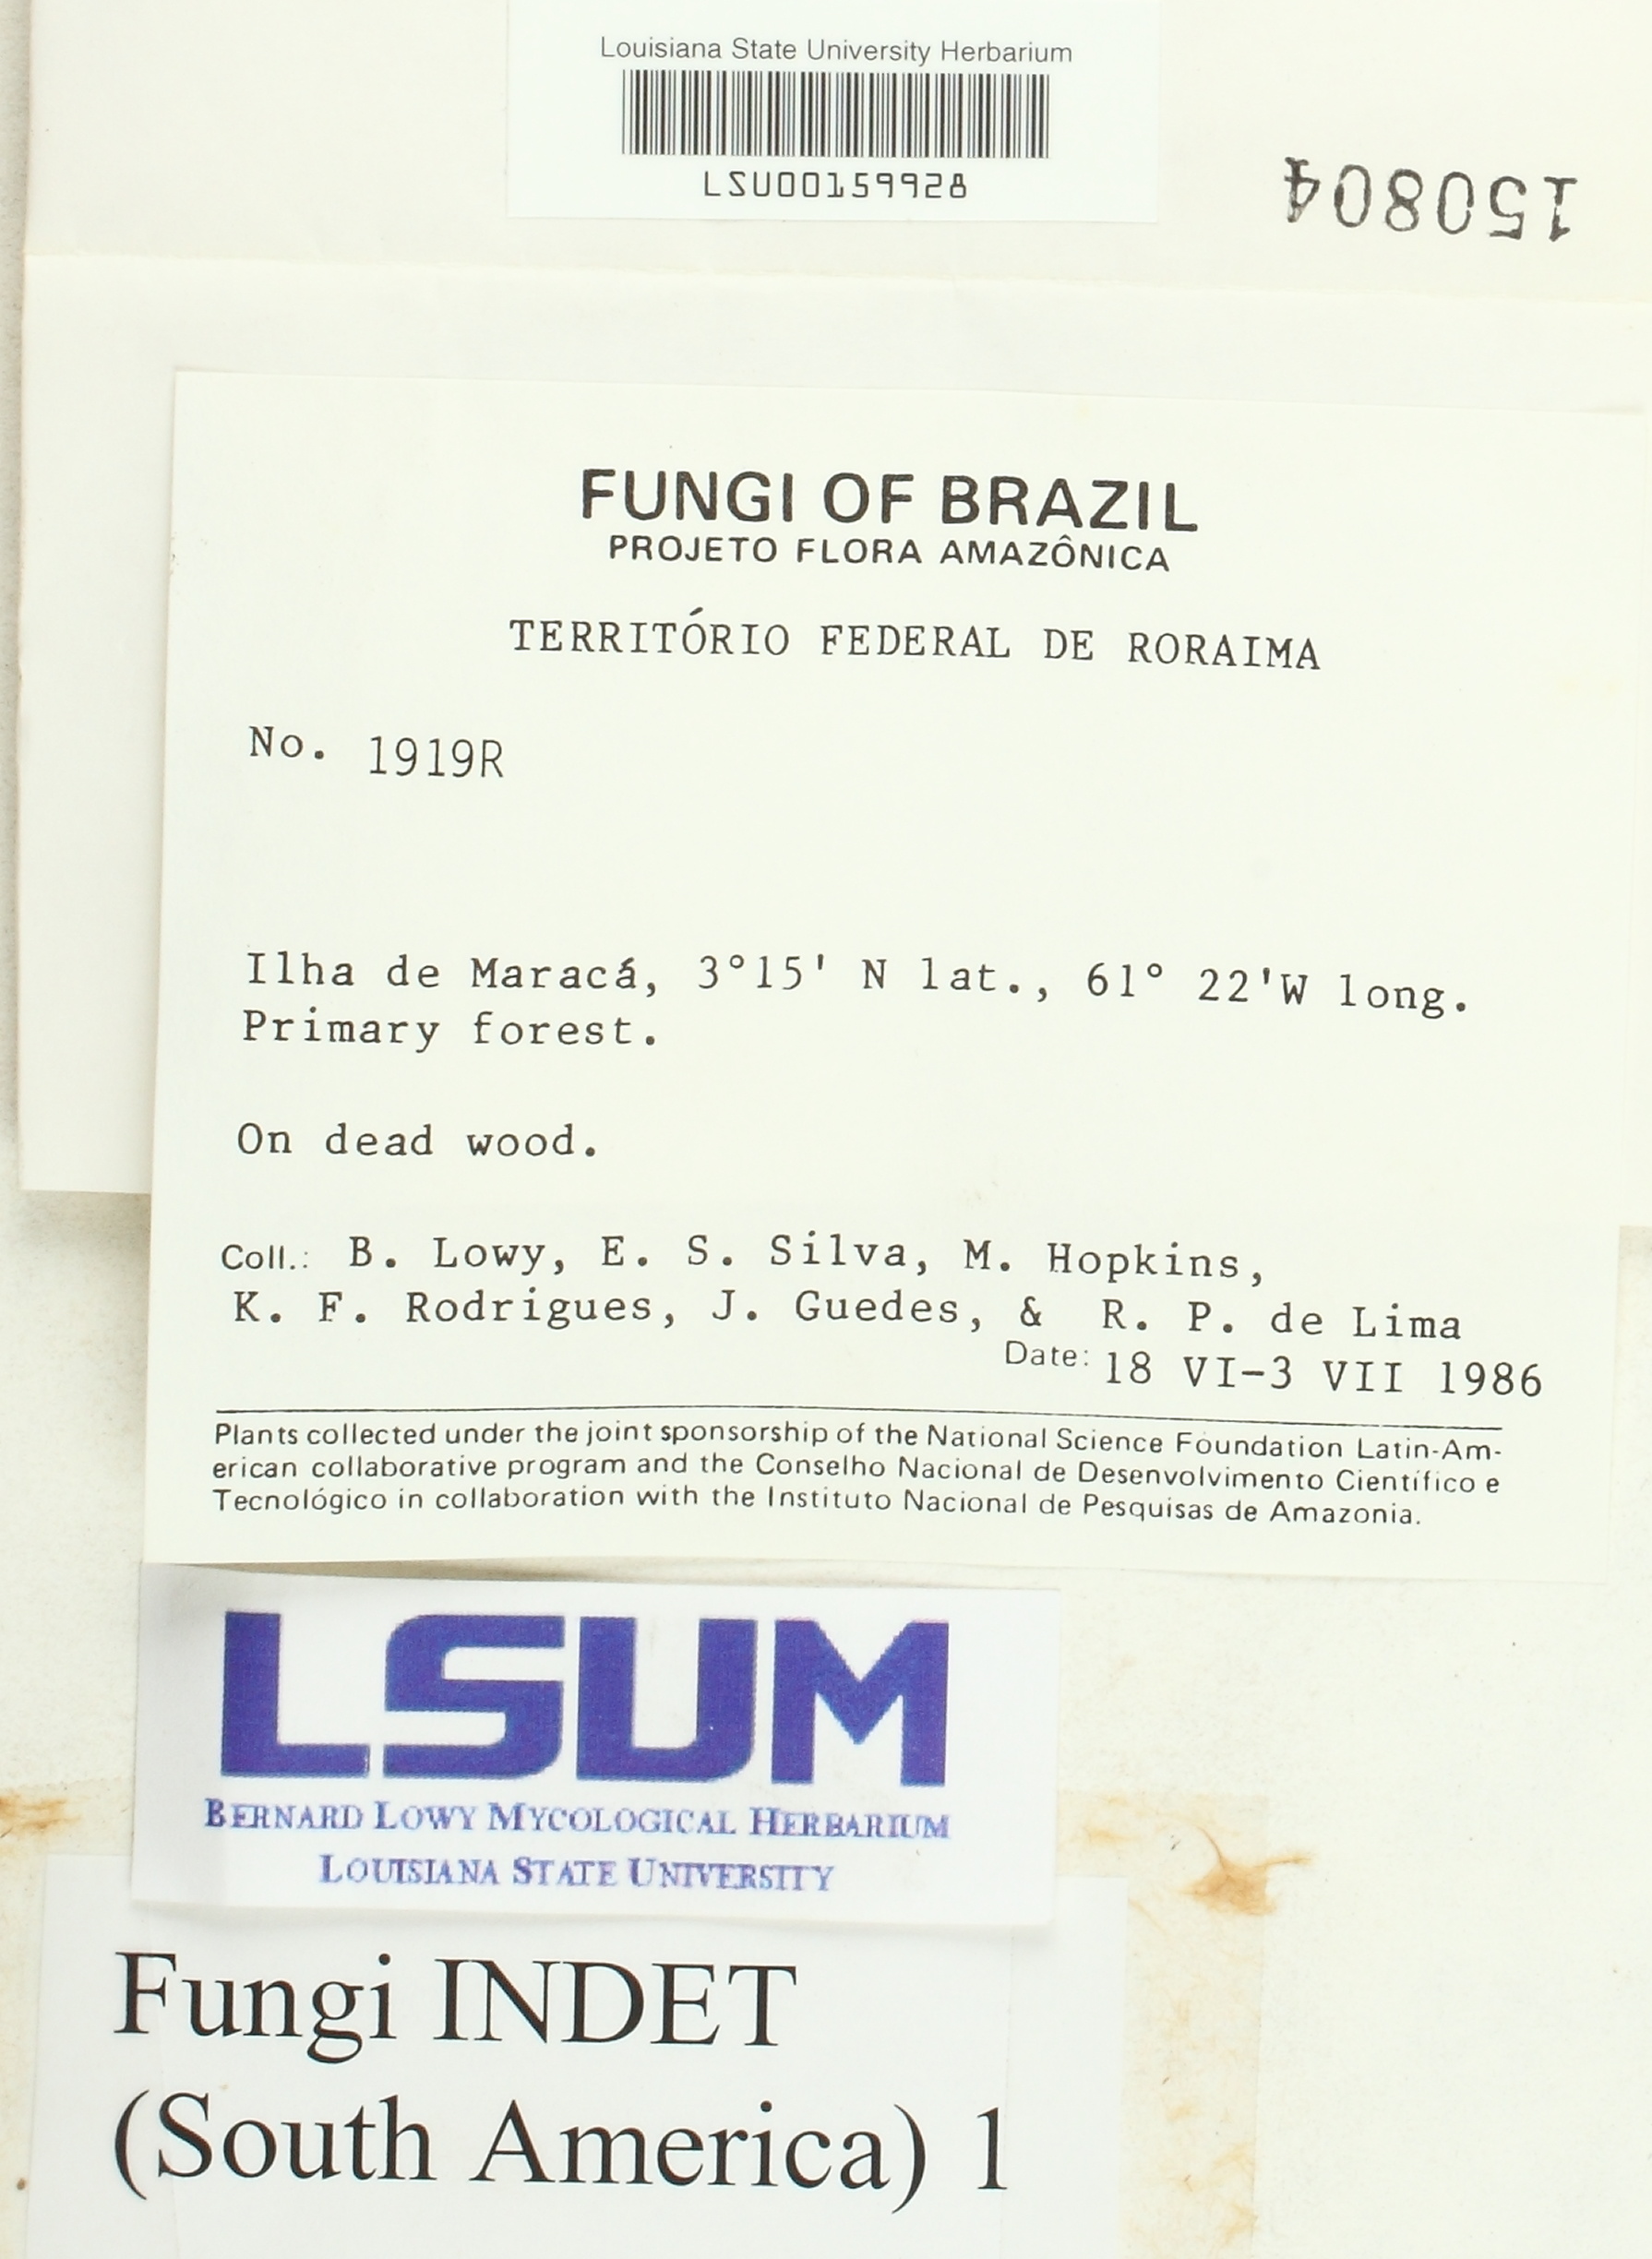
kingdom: Fungi
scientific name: Fungi
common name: Fungi
